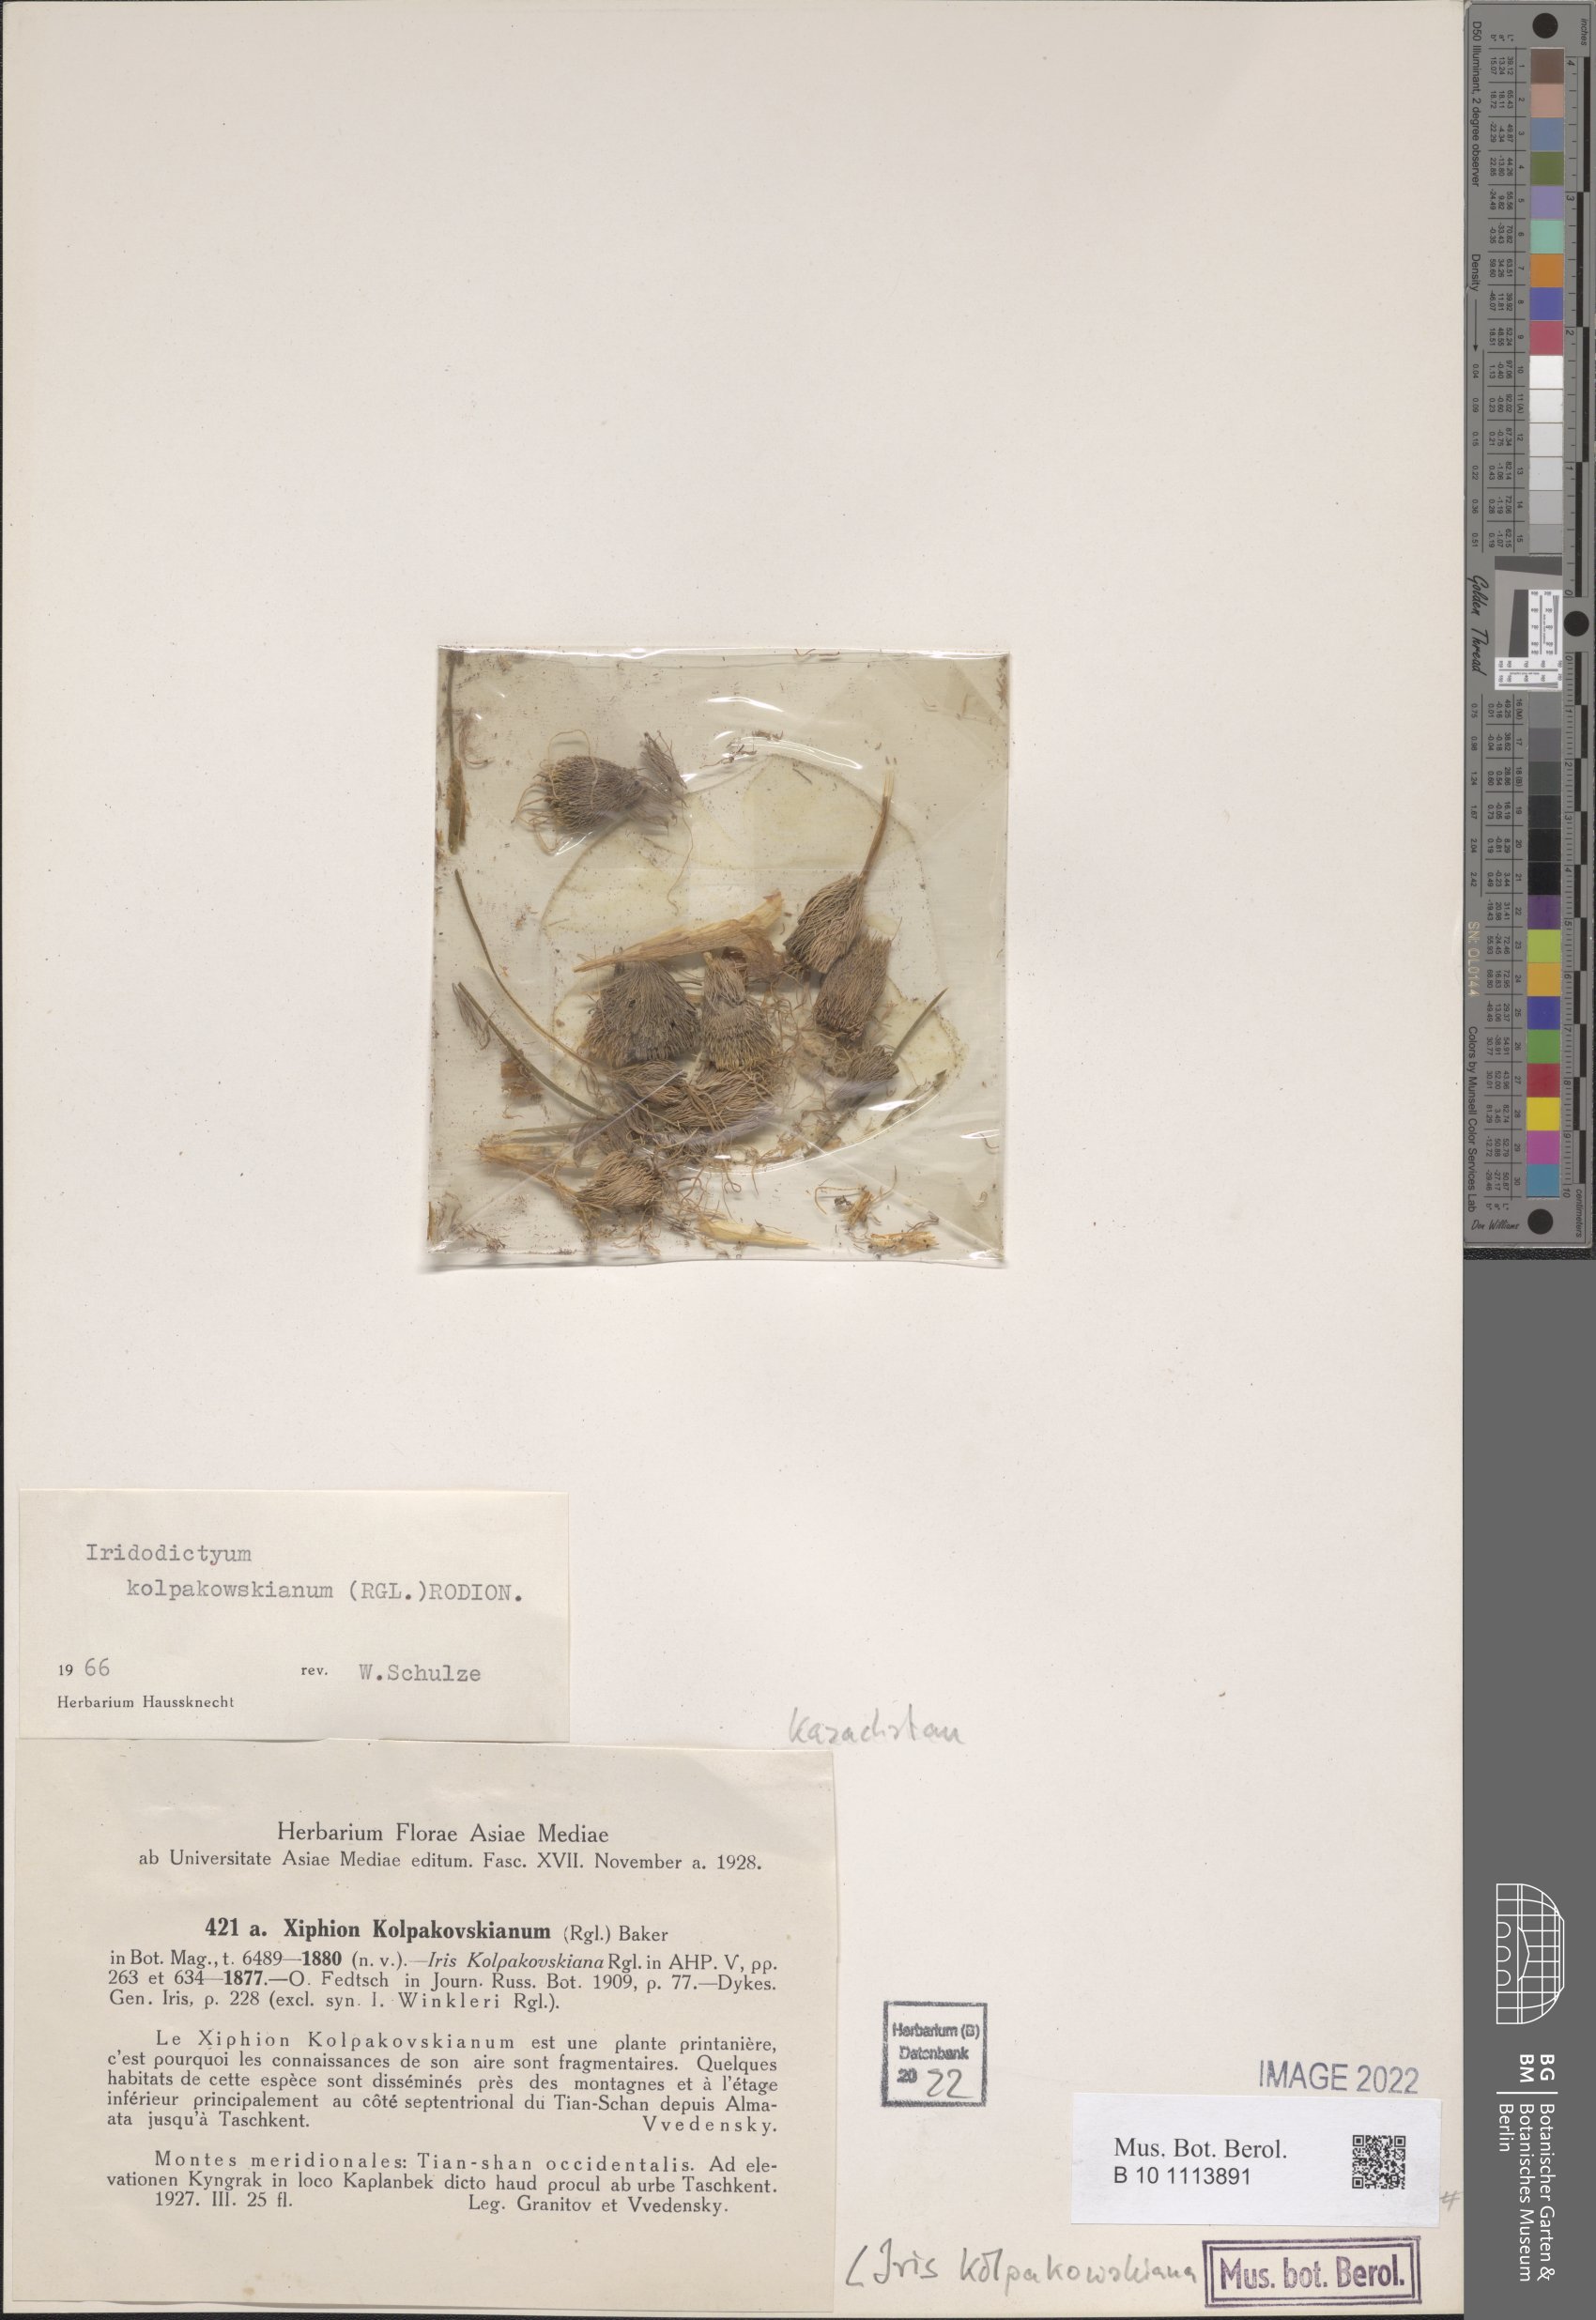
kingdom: Plantae
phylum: Tracheophyta
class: Liliopsida
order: Asparagales
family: Iridaceae
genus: Iris
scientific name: Iris kolpakowskiana
